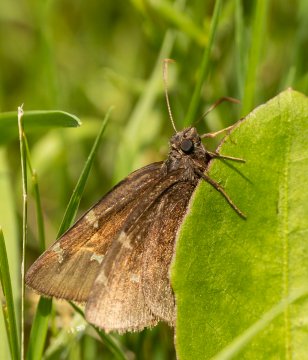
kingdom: Animalia
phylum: Arthropoda
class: Insecta
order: Lepidoptera
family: Hesperiidae
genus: Autochton
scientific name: Autochton
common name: Northern Cloudywing
